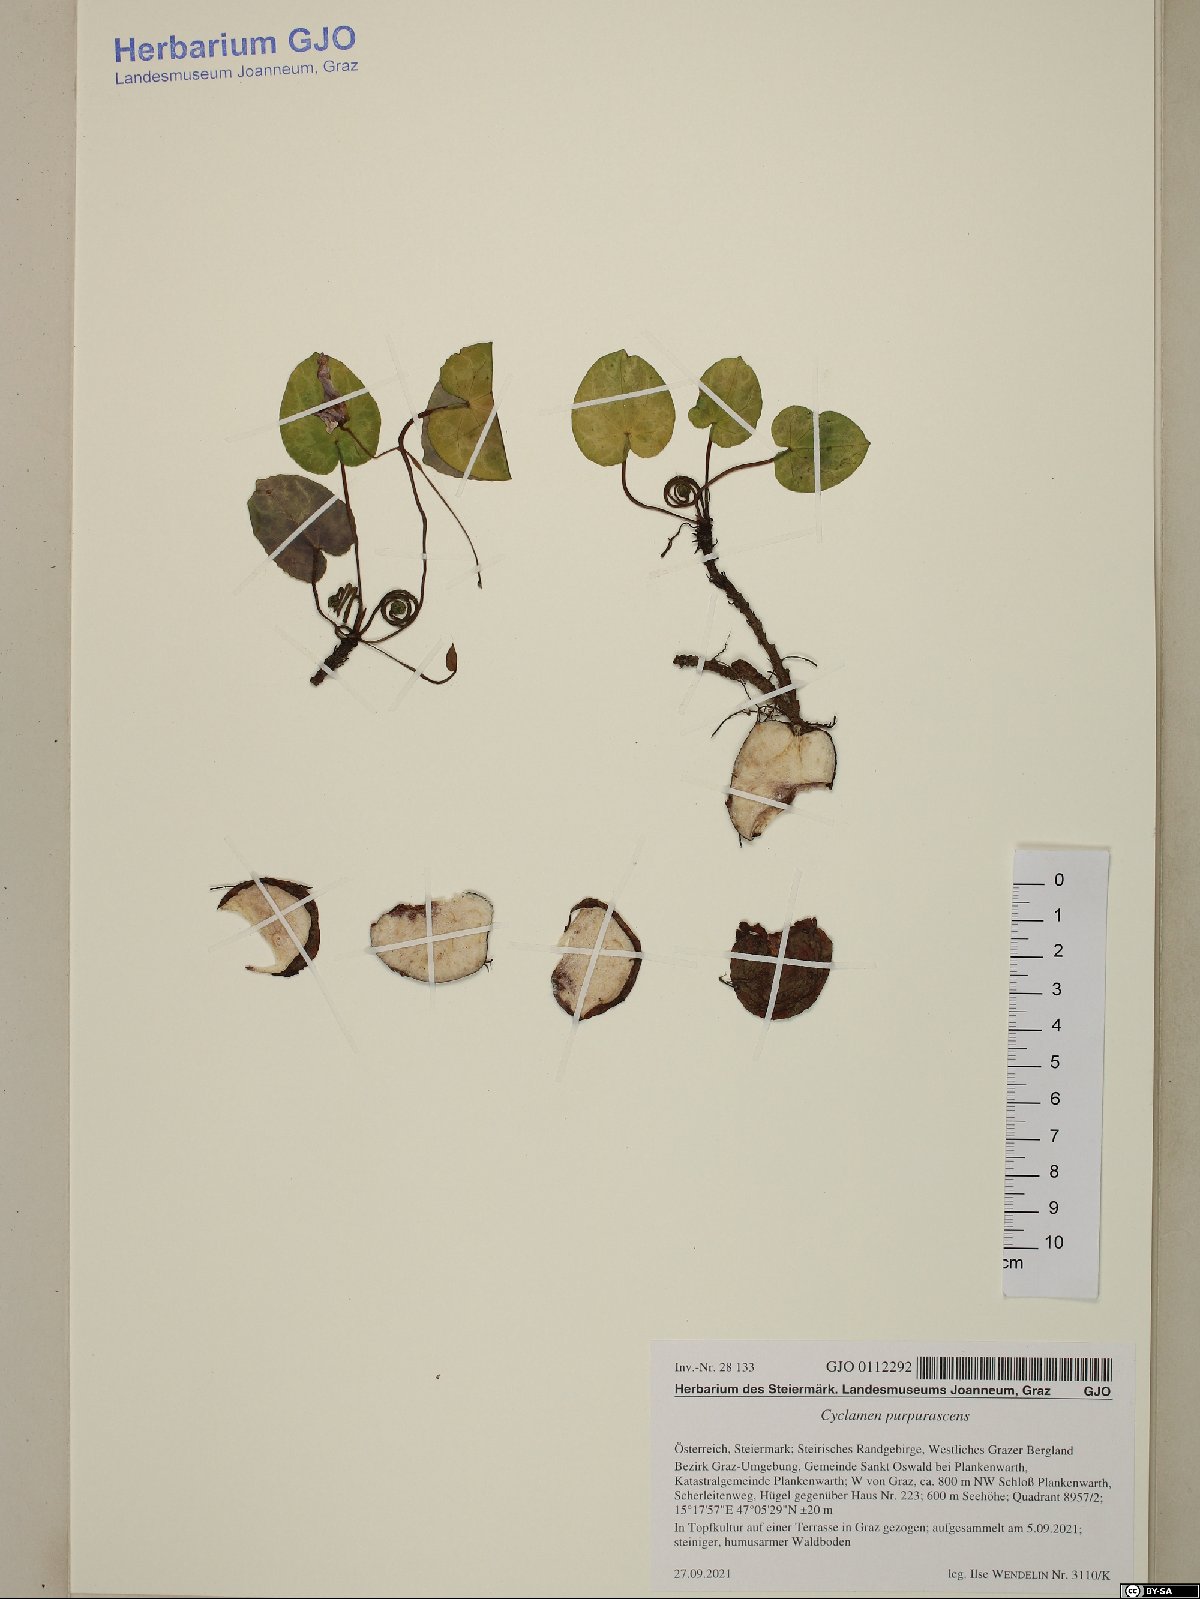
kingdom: Plantae
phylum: Tracheophyta
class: Magnoliopsida
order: Ericales
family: Primulaceae
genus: Cyclamen
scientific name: Cyclamen purpurascens
